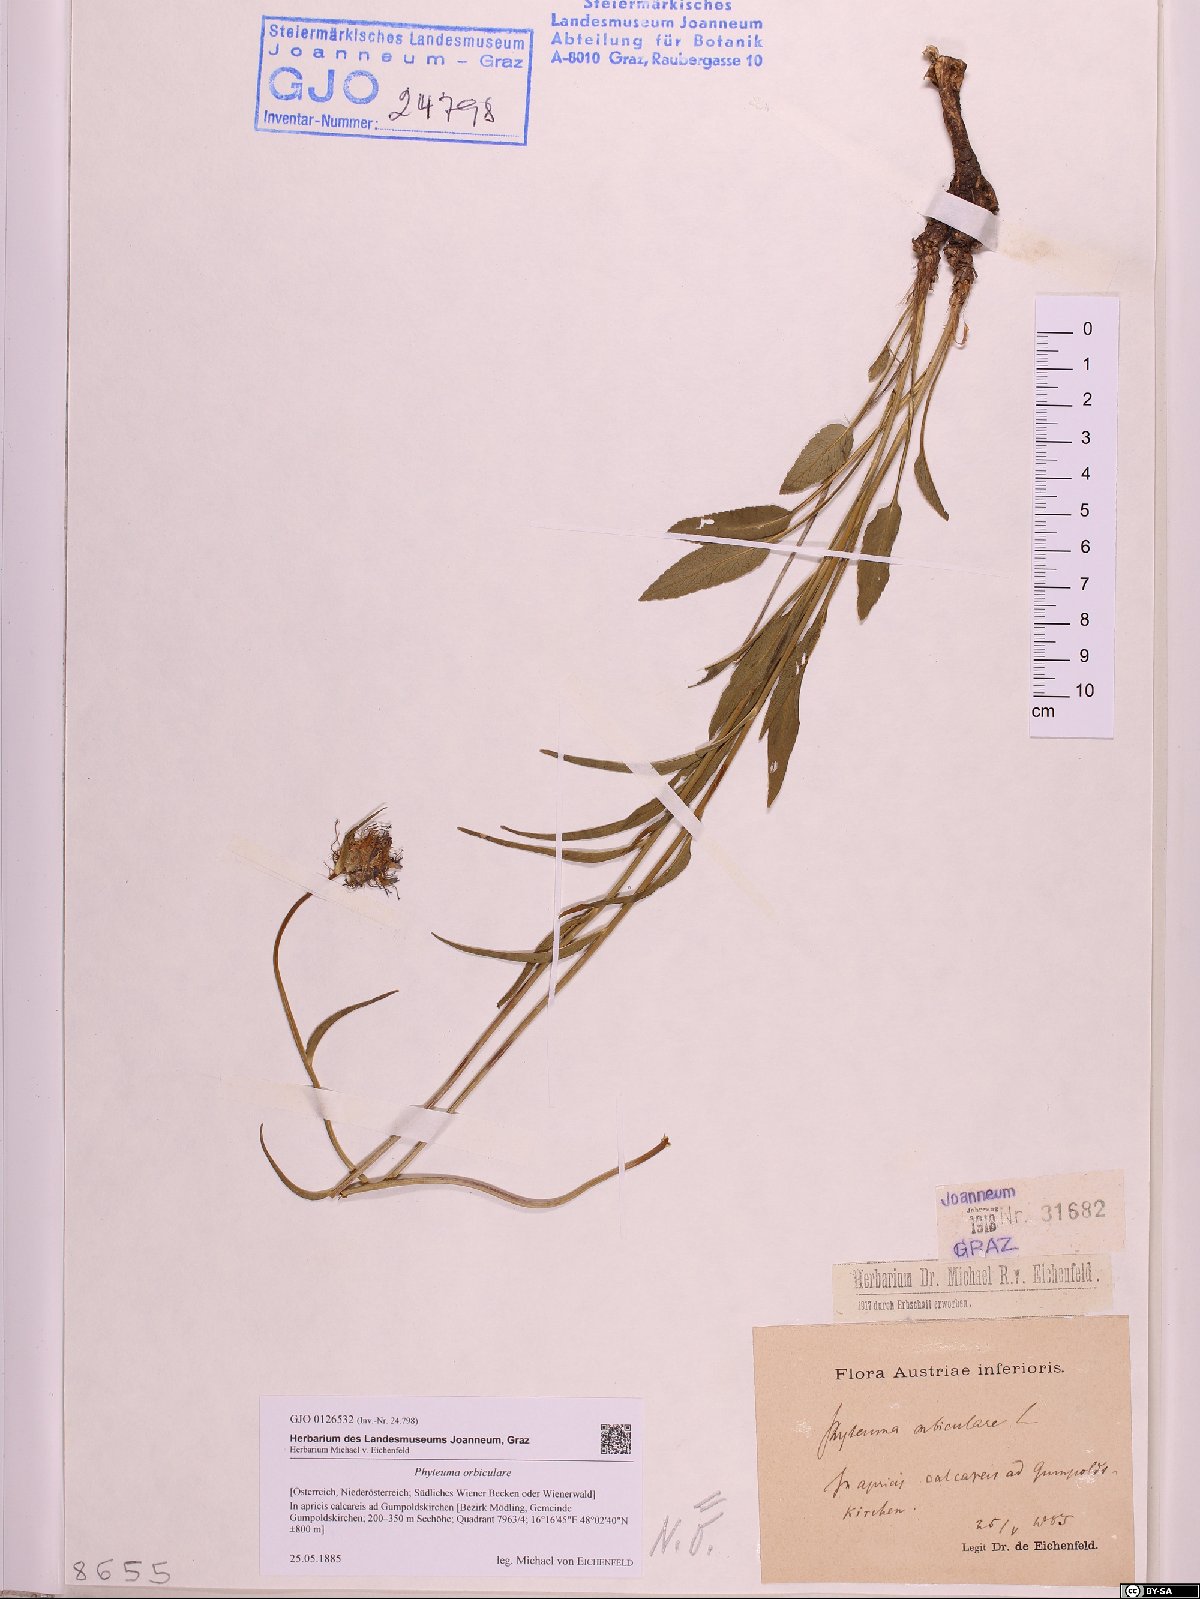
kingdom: Plantae
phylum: Tracheophyta
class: Magnoliopsida
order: Asterales
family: Campanulaceae
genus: Phyteuma
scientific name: Phyteuma orbiculare
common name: Round-headed rampion
